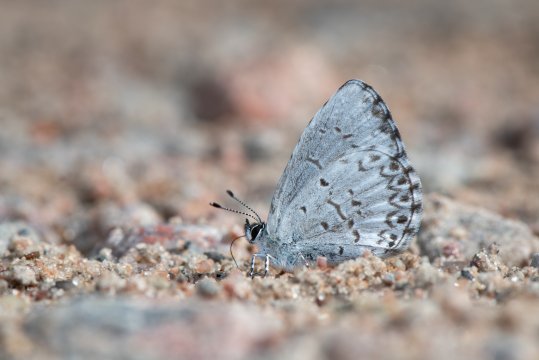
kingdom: Animalia
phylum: Arthropoda
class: Insecta
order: Lepidoptera
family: Lycaenidae
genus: Cyaniris
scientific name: Cyaniris neglecta
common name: Summer Azure
